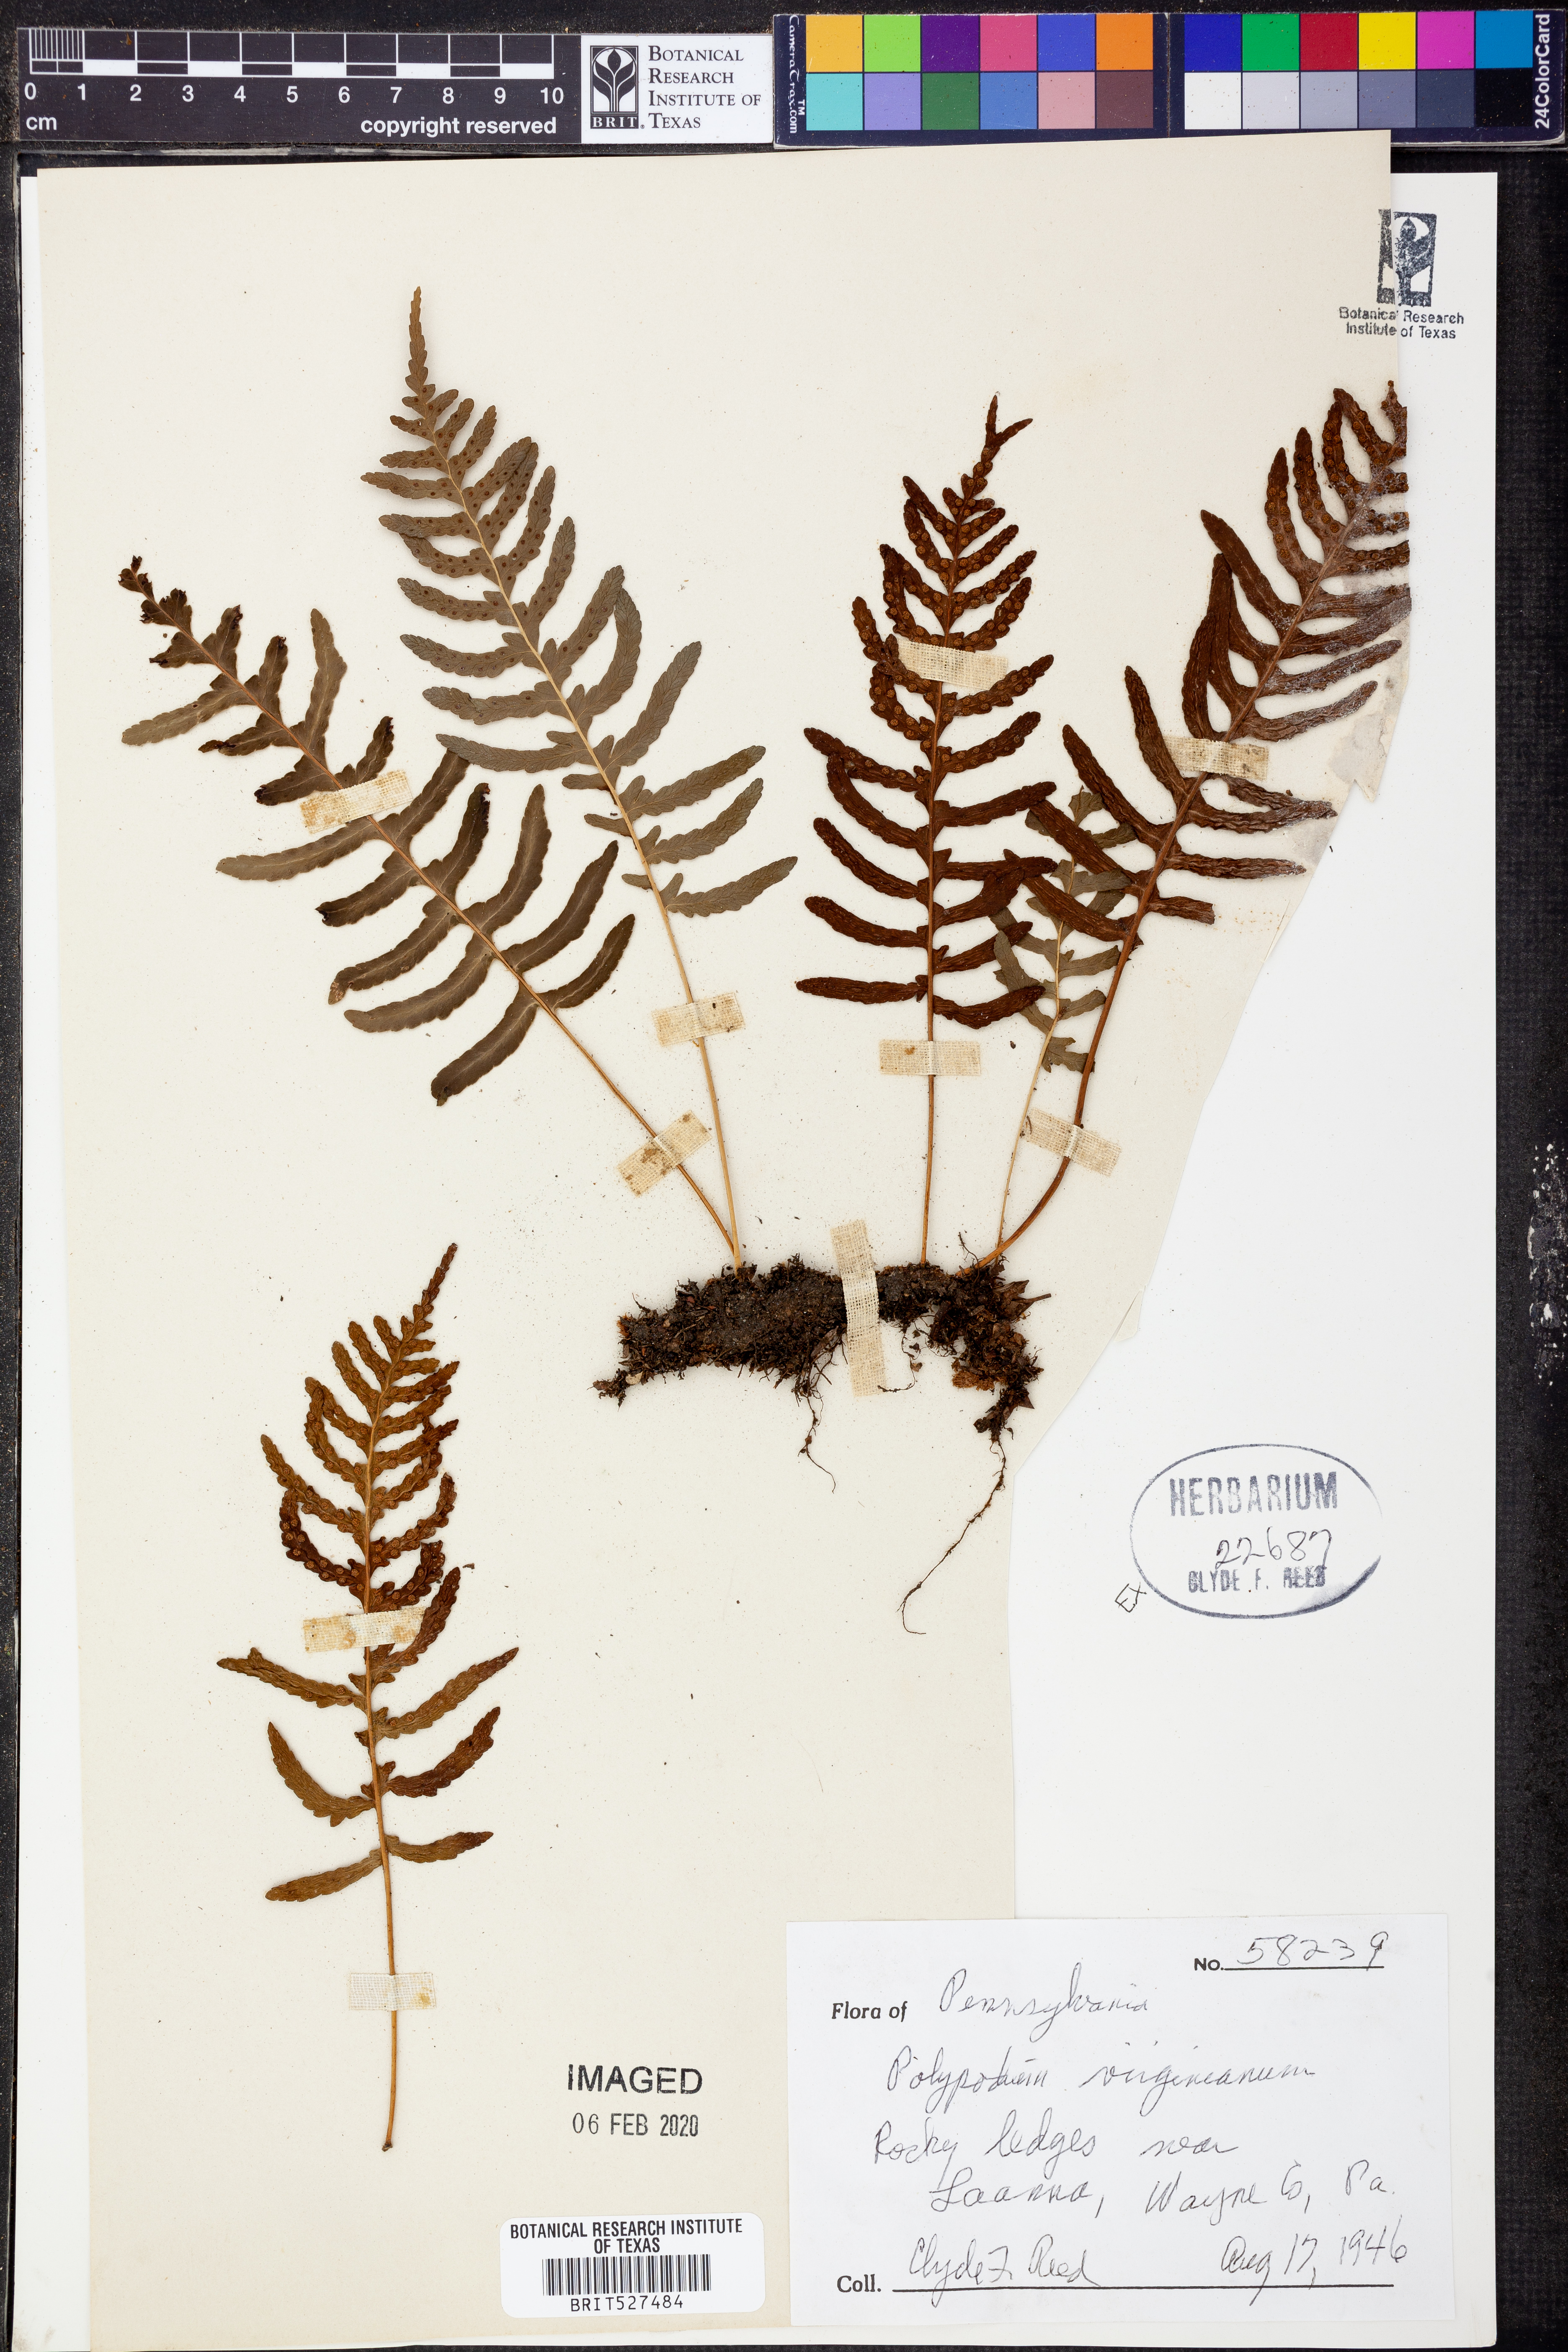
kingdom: Plantae
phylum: Tracheophyta
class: Polypodiopsida
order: Polypodiales
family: Polypodiaceae
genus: Polypodium
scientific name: Polypodium virginianum
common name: American wall fern
